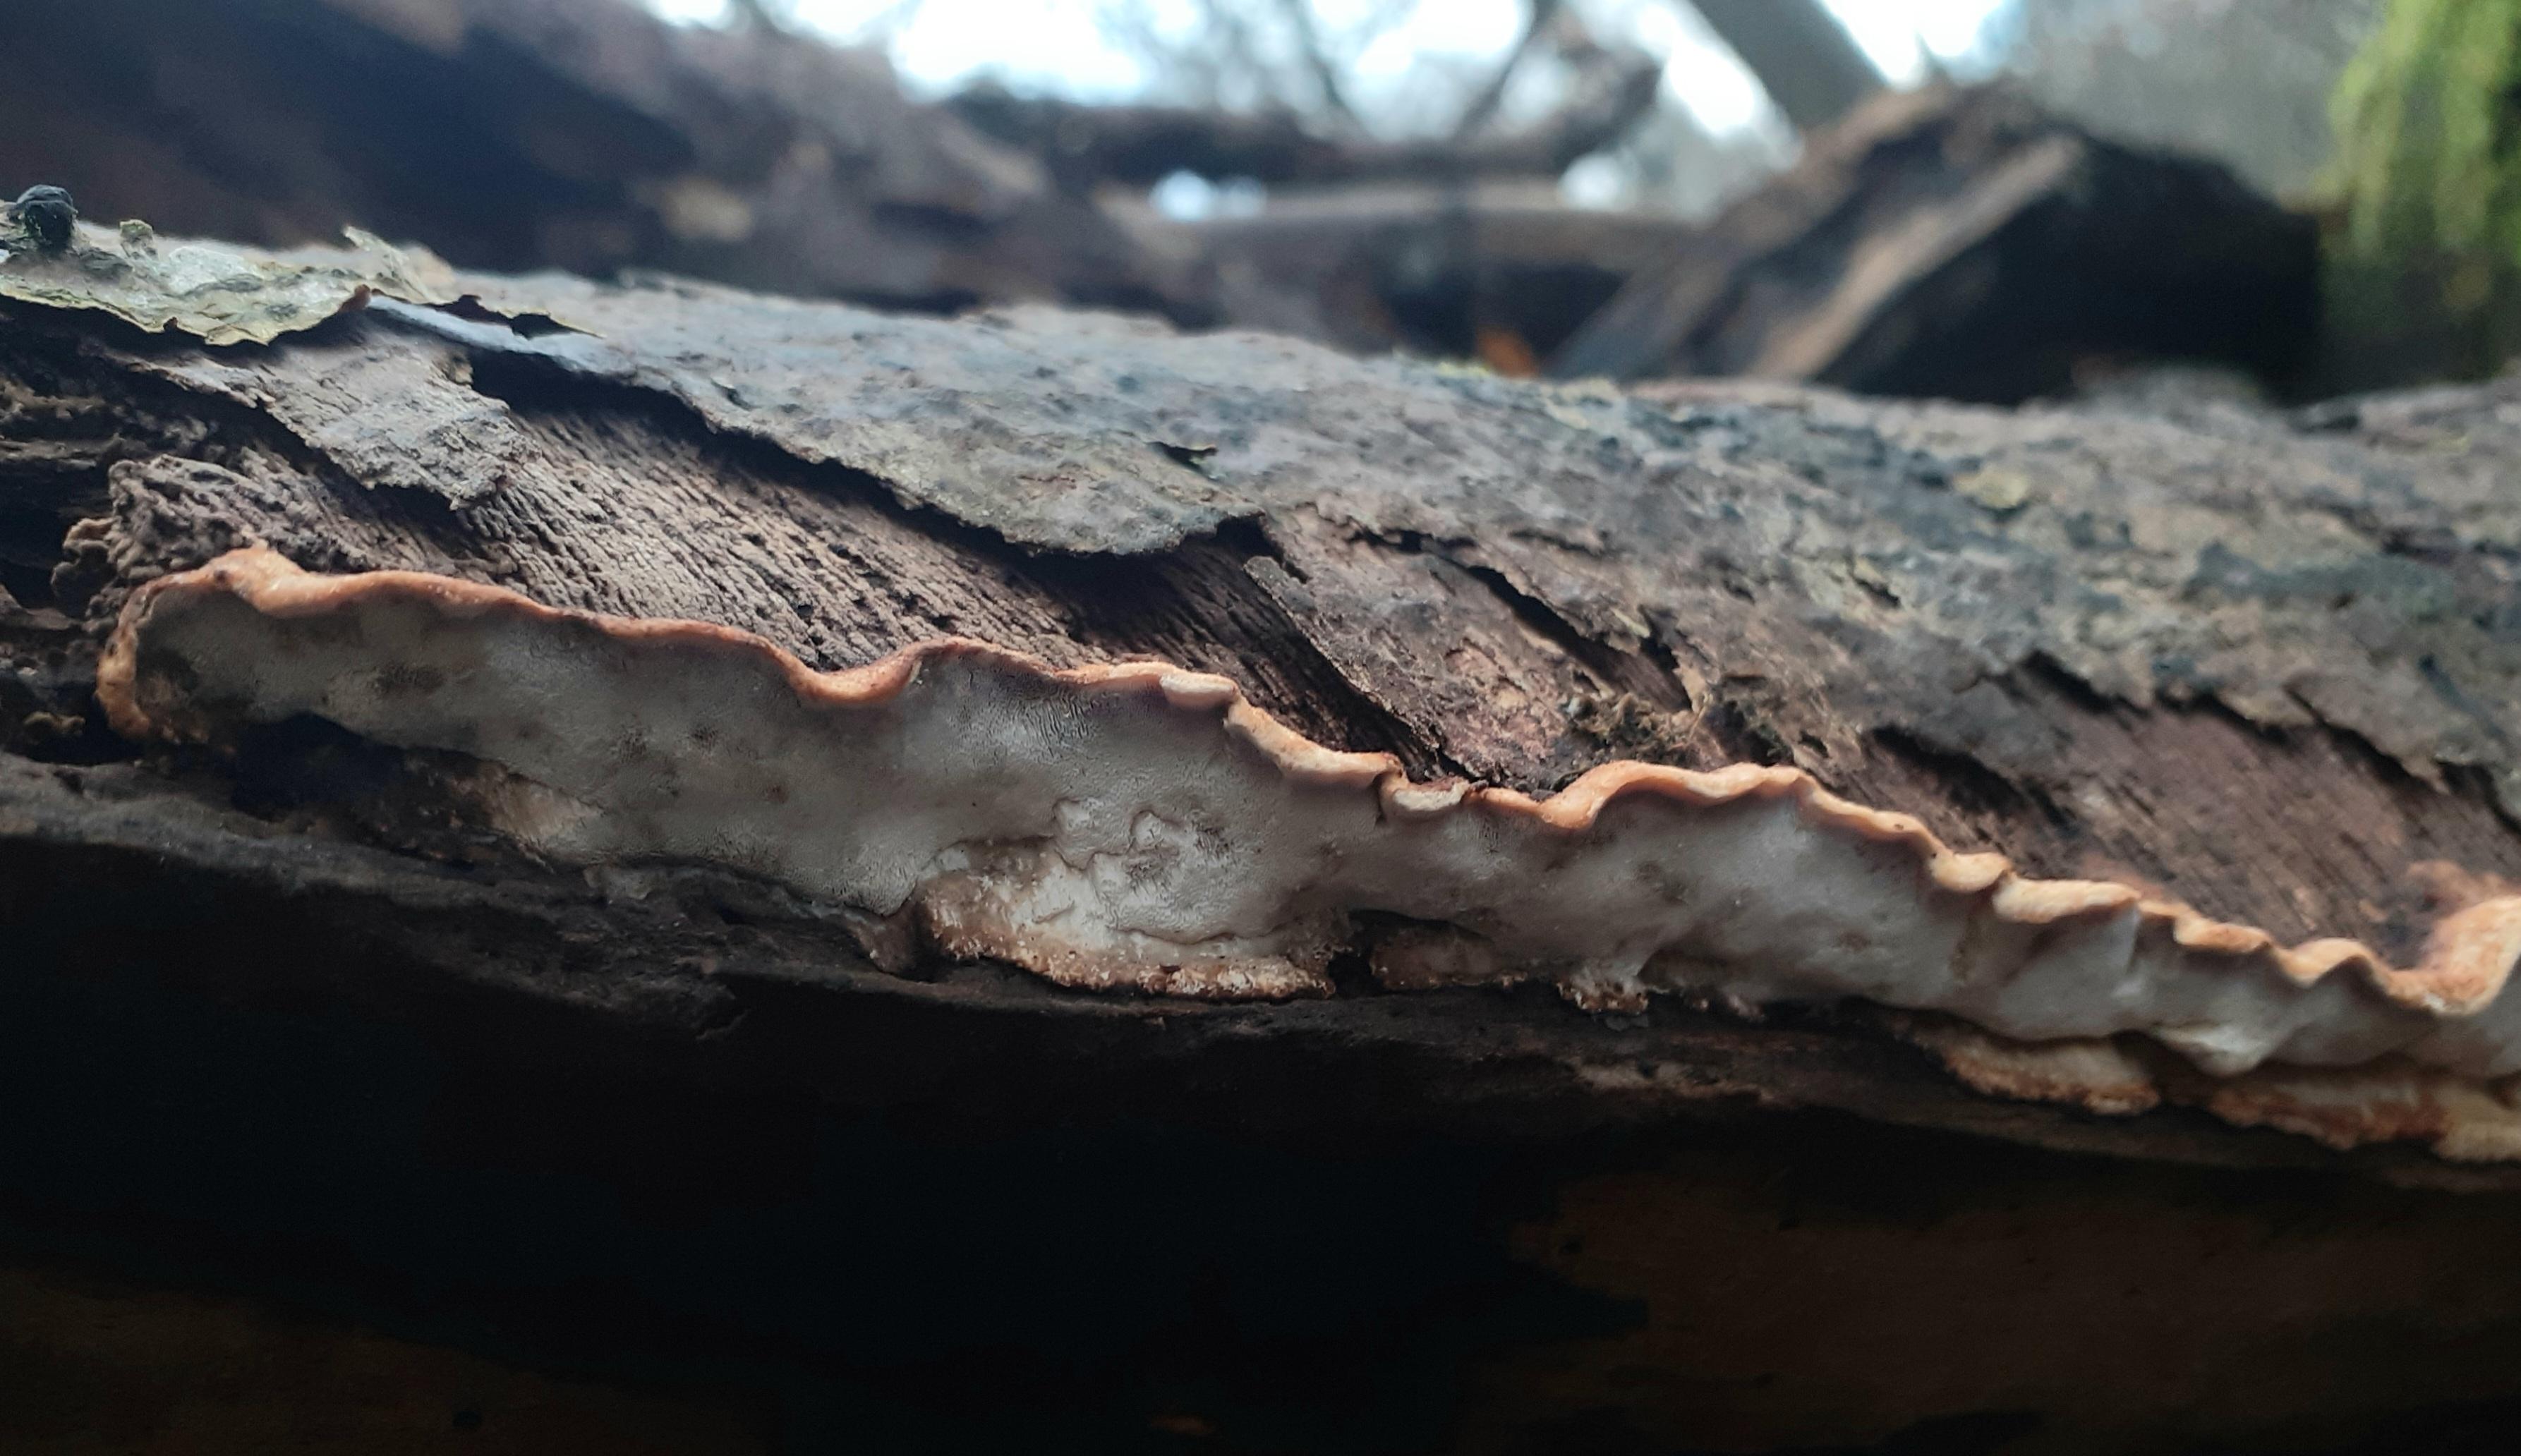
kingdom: Fungi
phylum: Basidiomycota
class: Agaricomycetes
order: Polyporales
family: Incrustoporiaceae
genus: Skeletocutis
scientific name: Skeletocutis nemoralis
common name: stor krystalporesvamp
